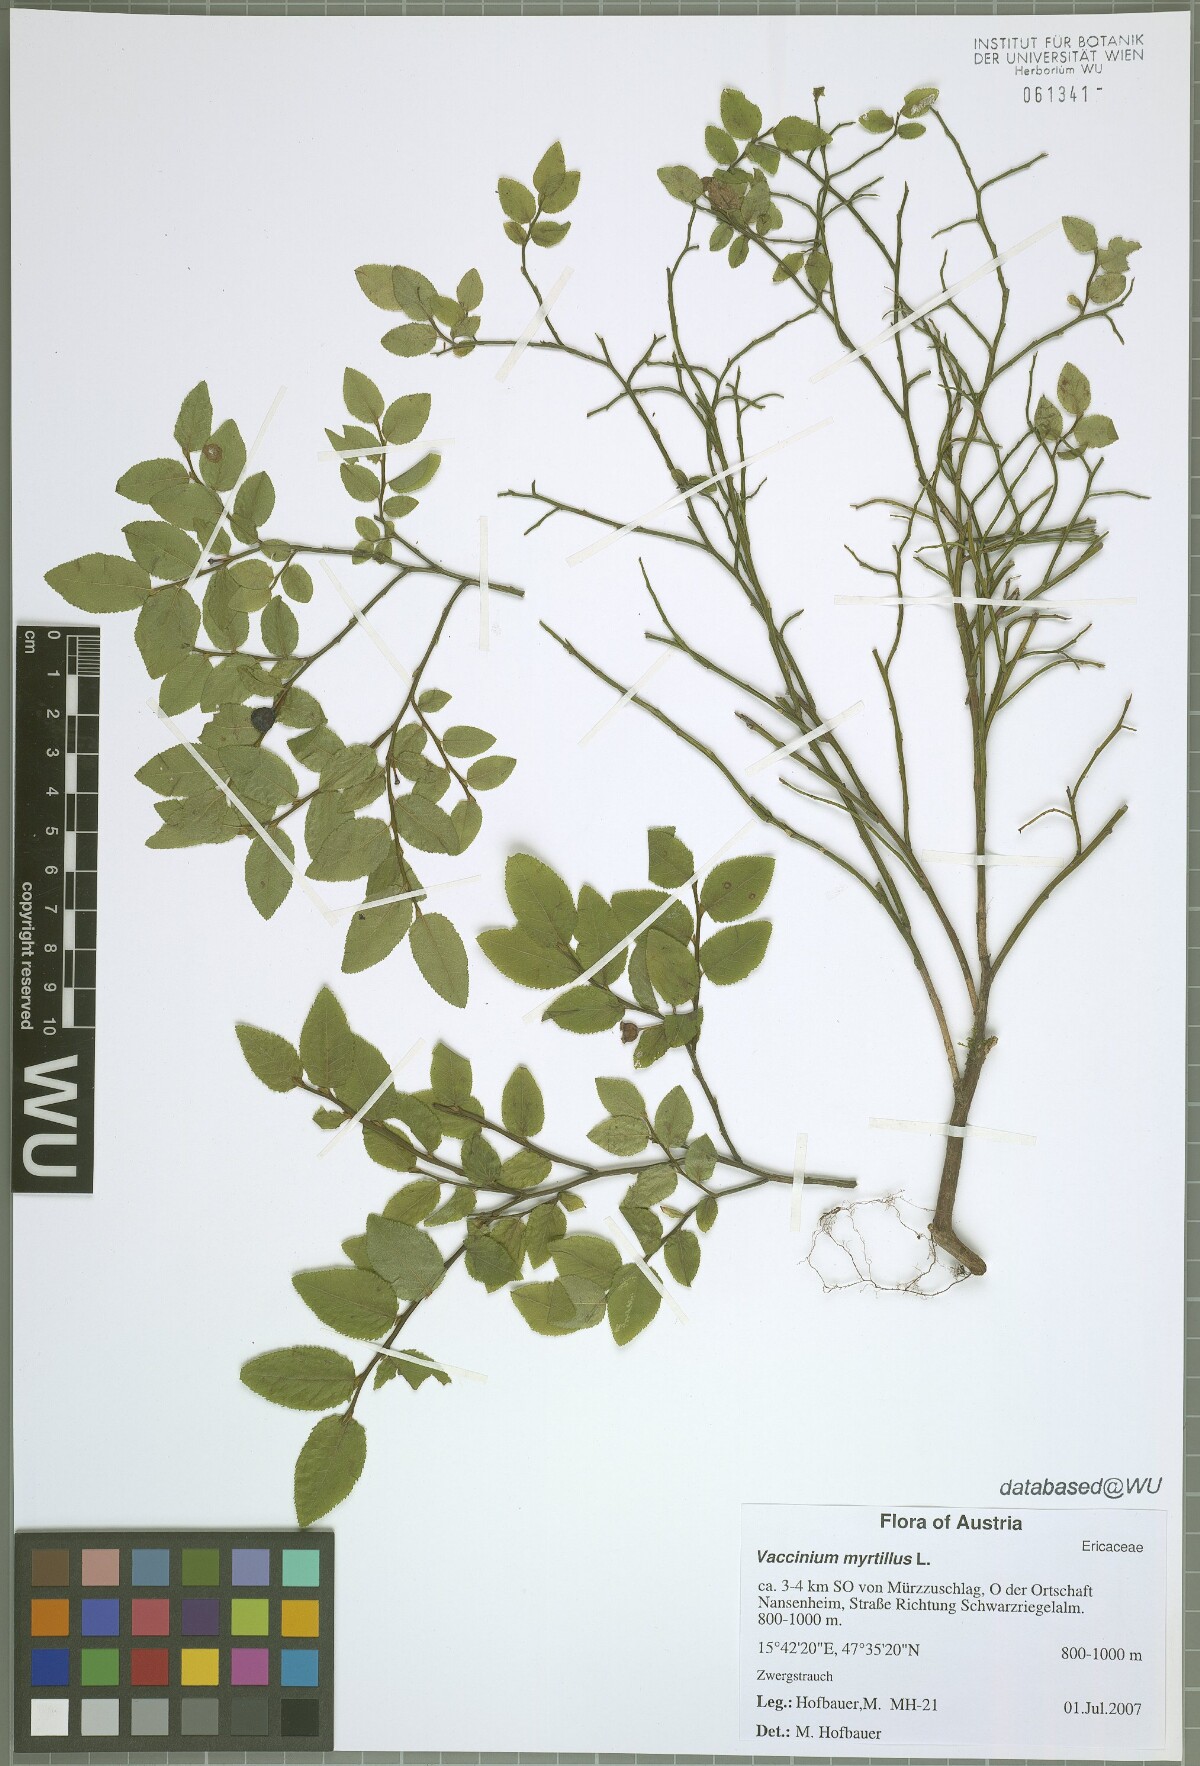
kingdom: Plantae
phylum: Tracheophyta
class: Magnoliopsida
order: Ericales
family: Ericaceae
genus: Vaccinium
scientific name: Vaccinium myrtillus
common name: Bilberry
